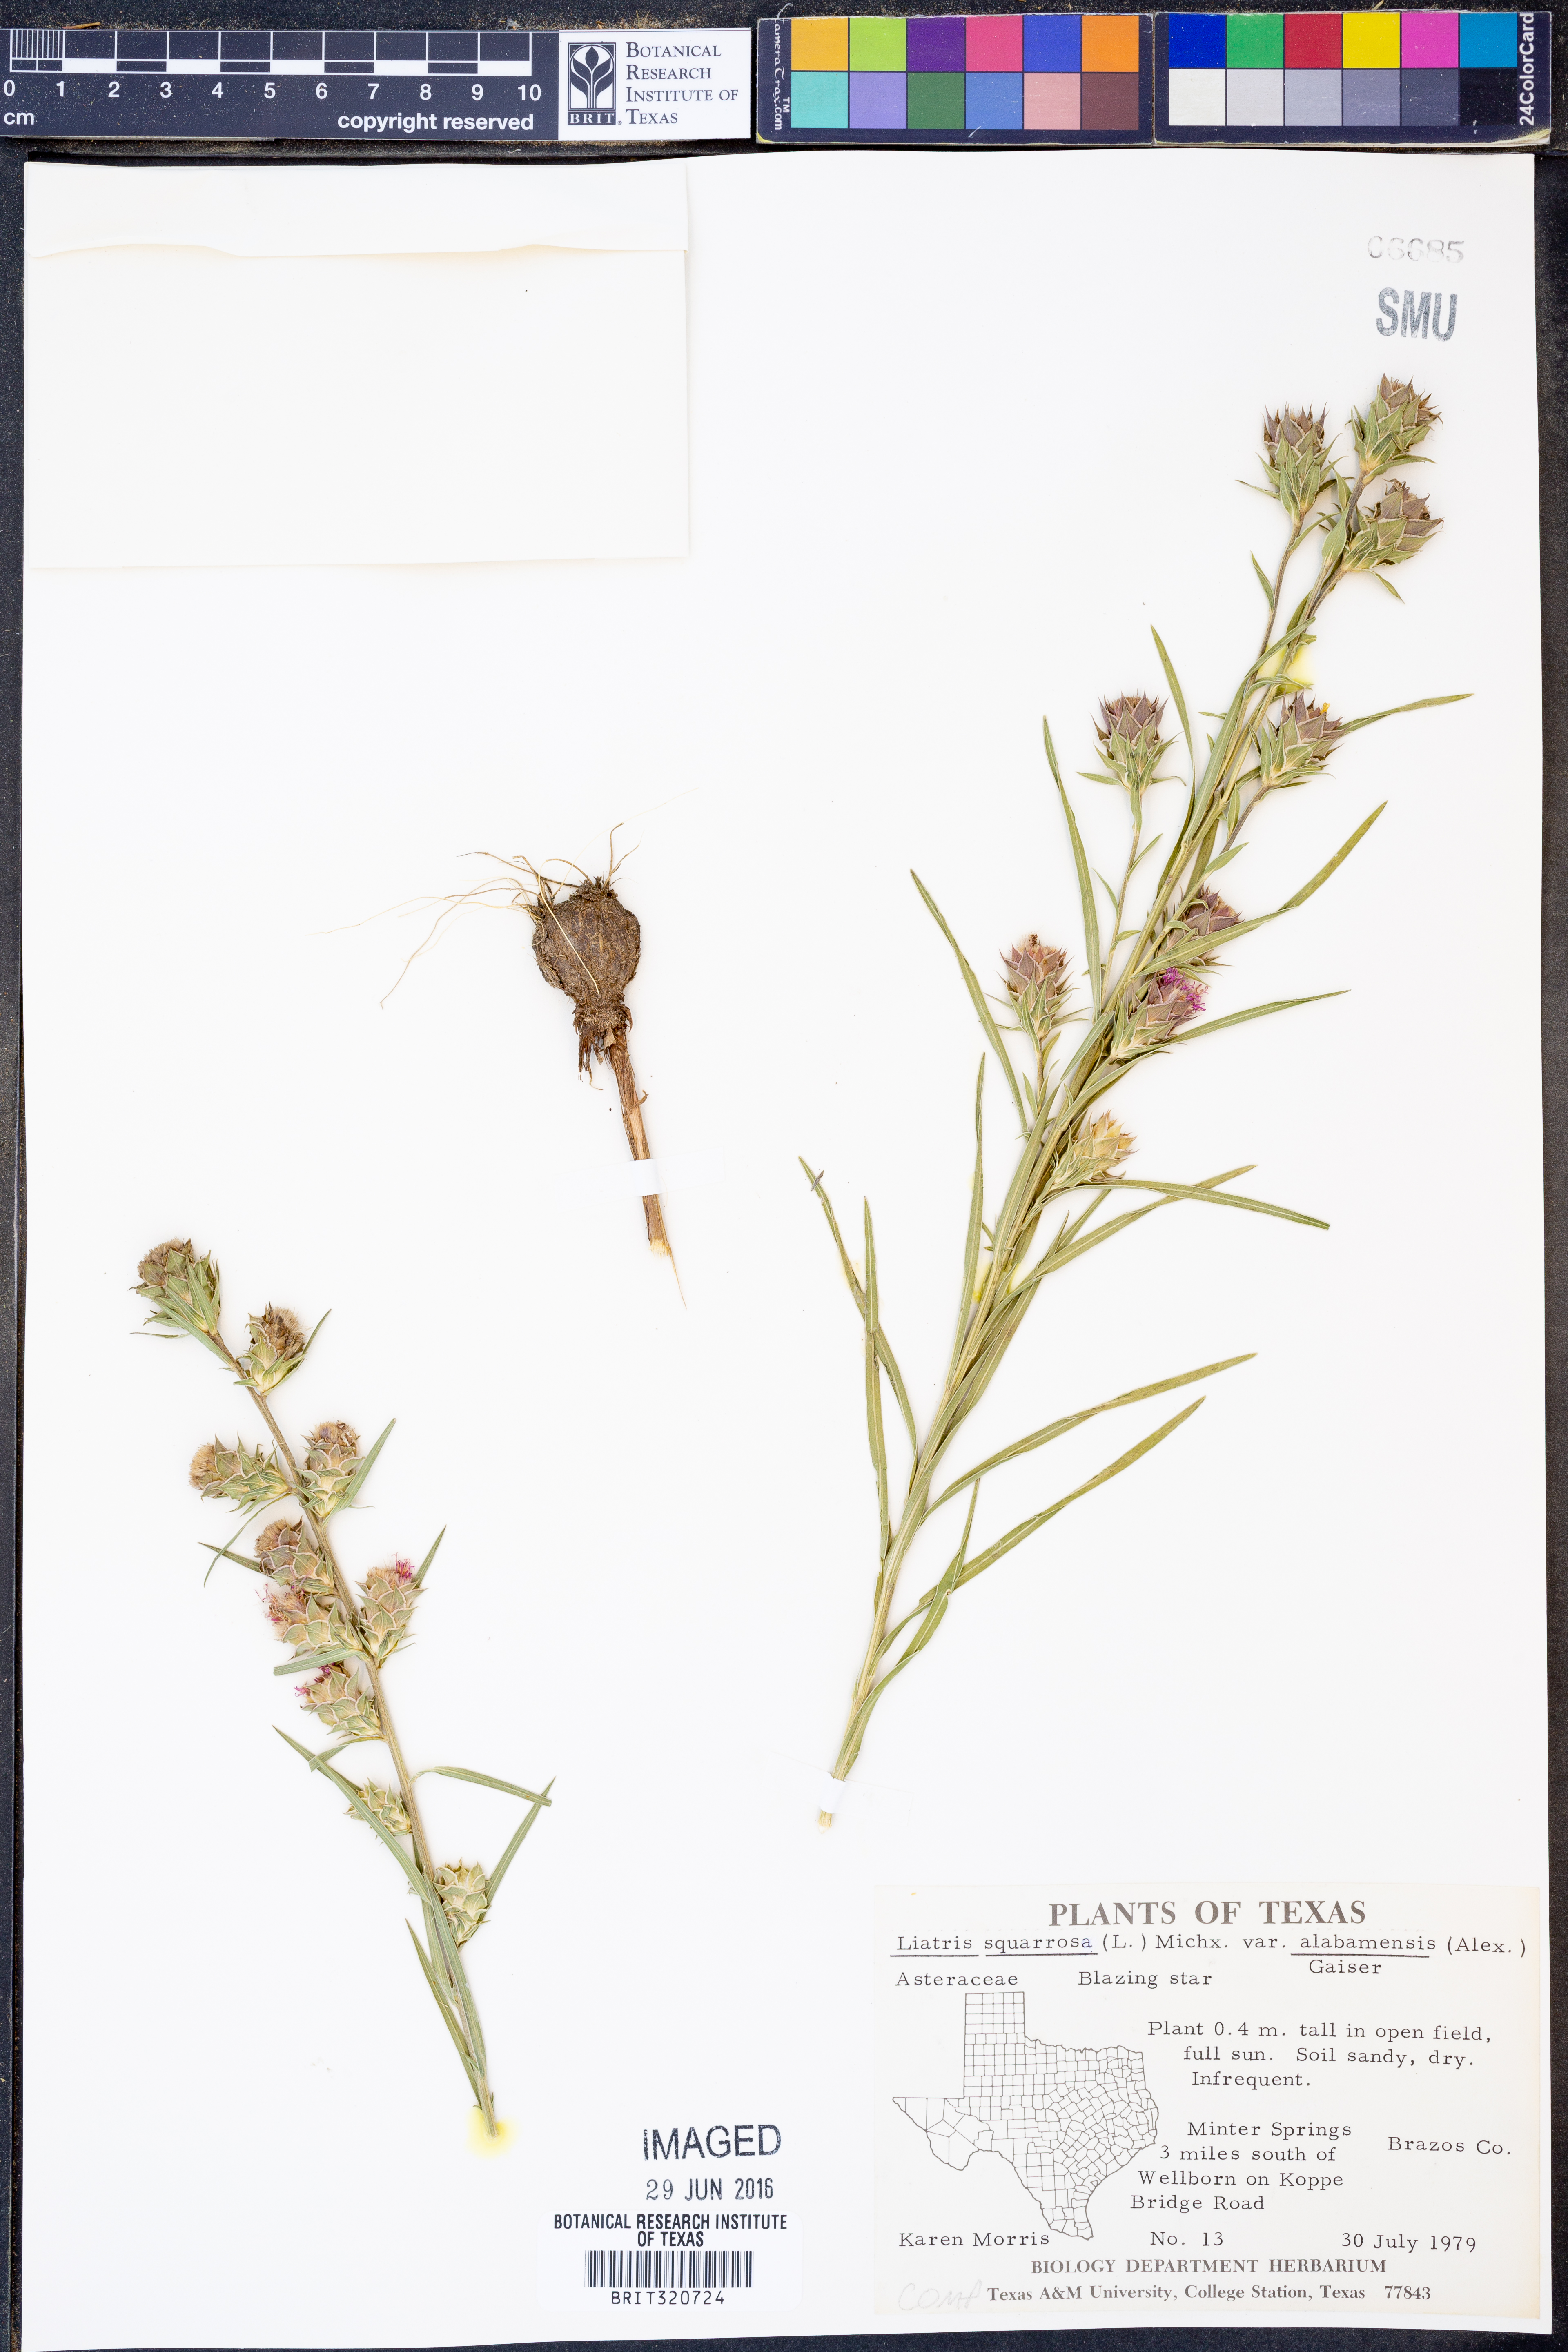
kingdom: Plantae
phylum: Tracheophyta
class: Magnoliopsida
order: Asterales
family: Asteraceae
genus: Liatris
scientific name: Liatris squarrosa
